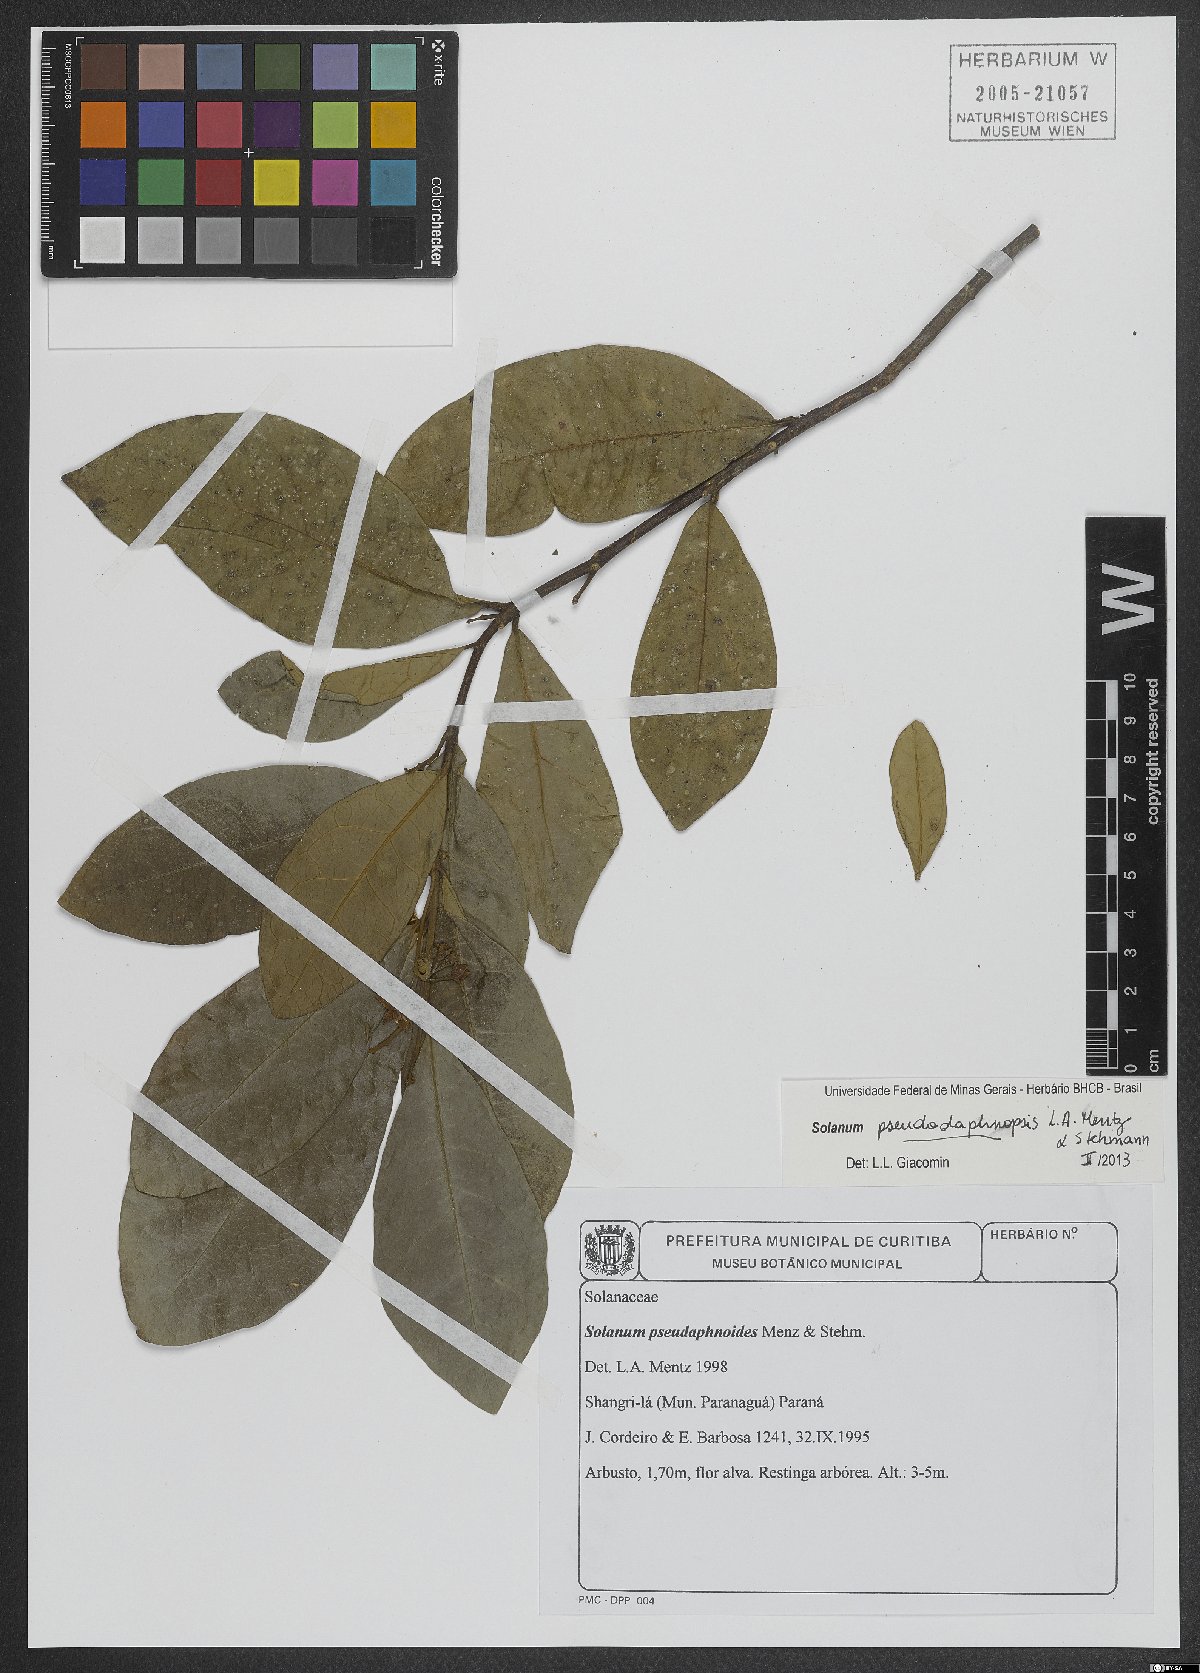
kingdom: Plantae
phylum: Tracheophyta
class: Magnoliopsida
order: Solanales
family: Solanaceae
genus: Solanum
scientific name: Solanum pseudodaphnopsis
